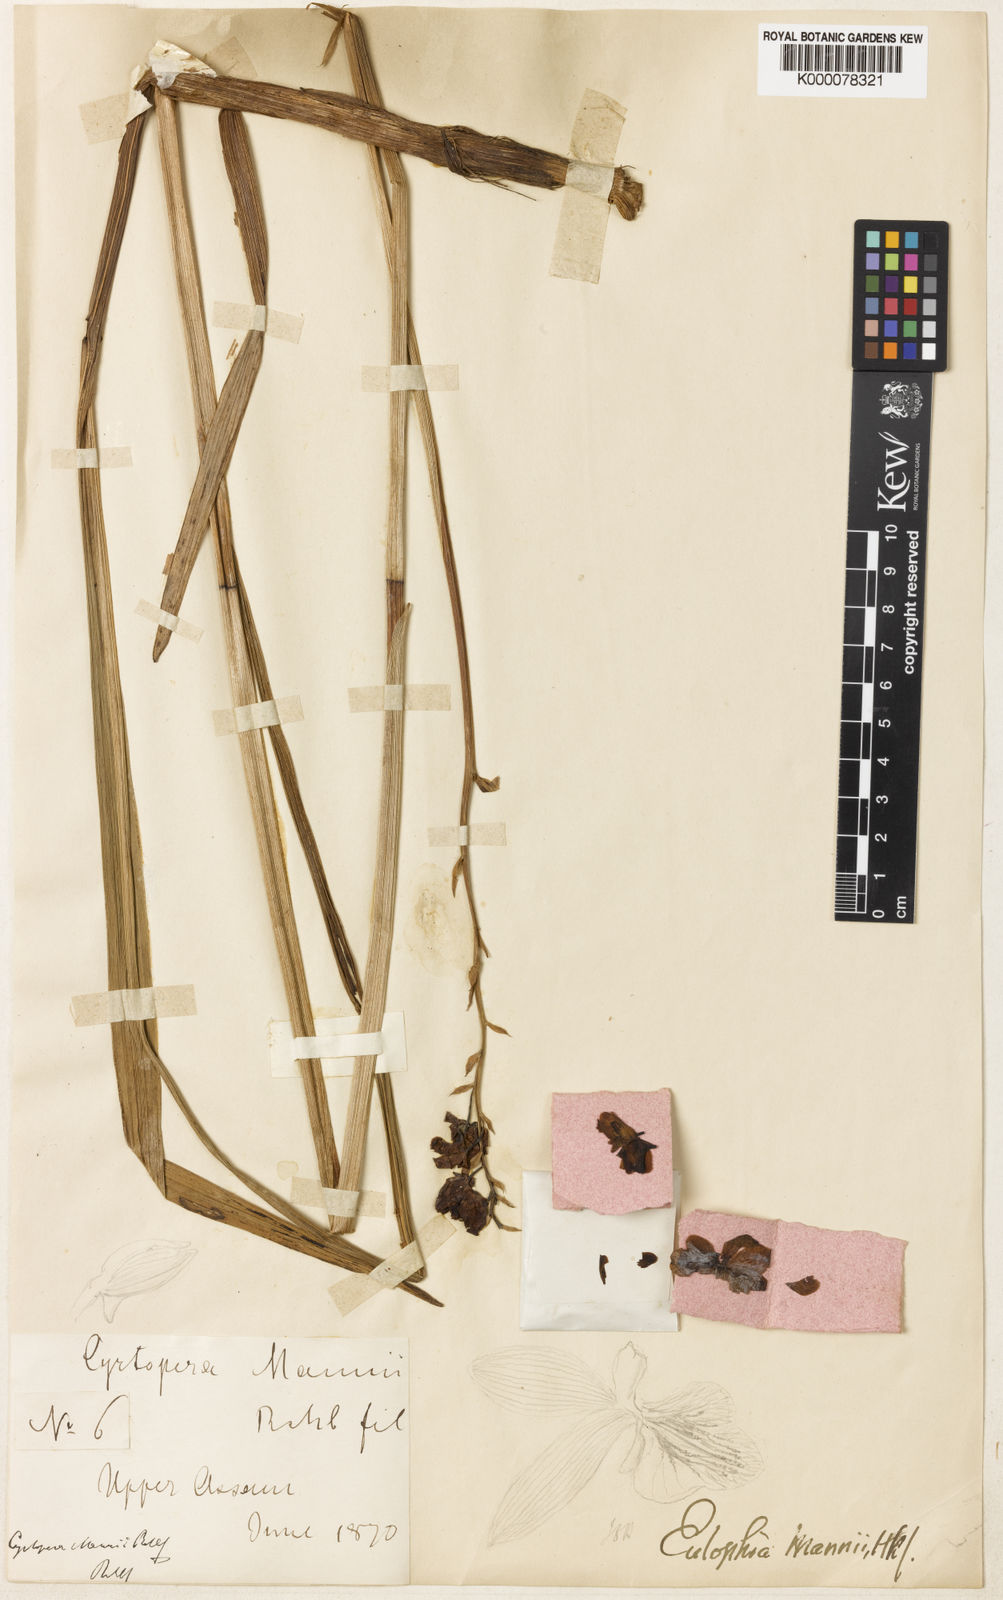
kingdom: Plantae
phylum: Tracheophyta
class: Liliopsida
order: Asparagales
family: Orchidaceae
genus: Eulophia
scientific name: Eulophia mannii
